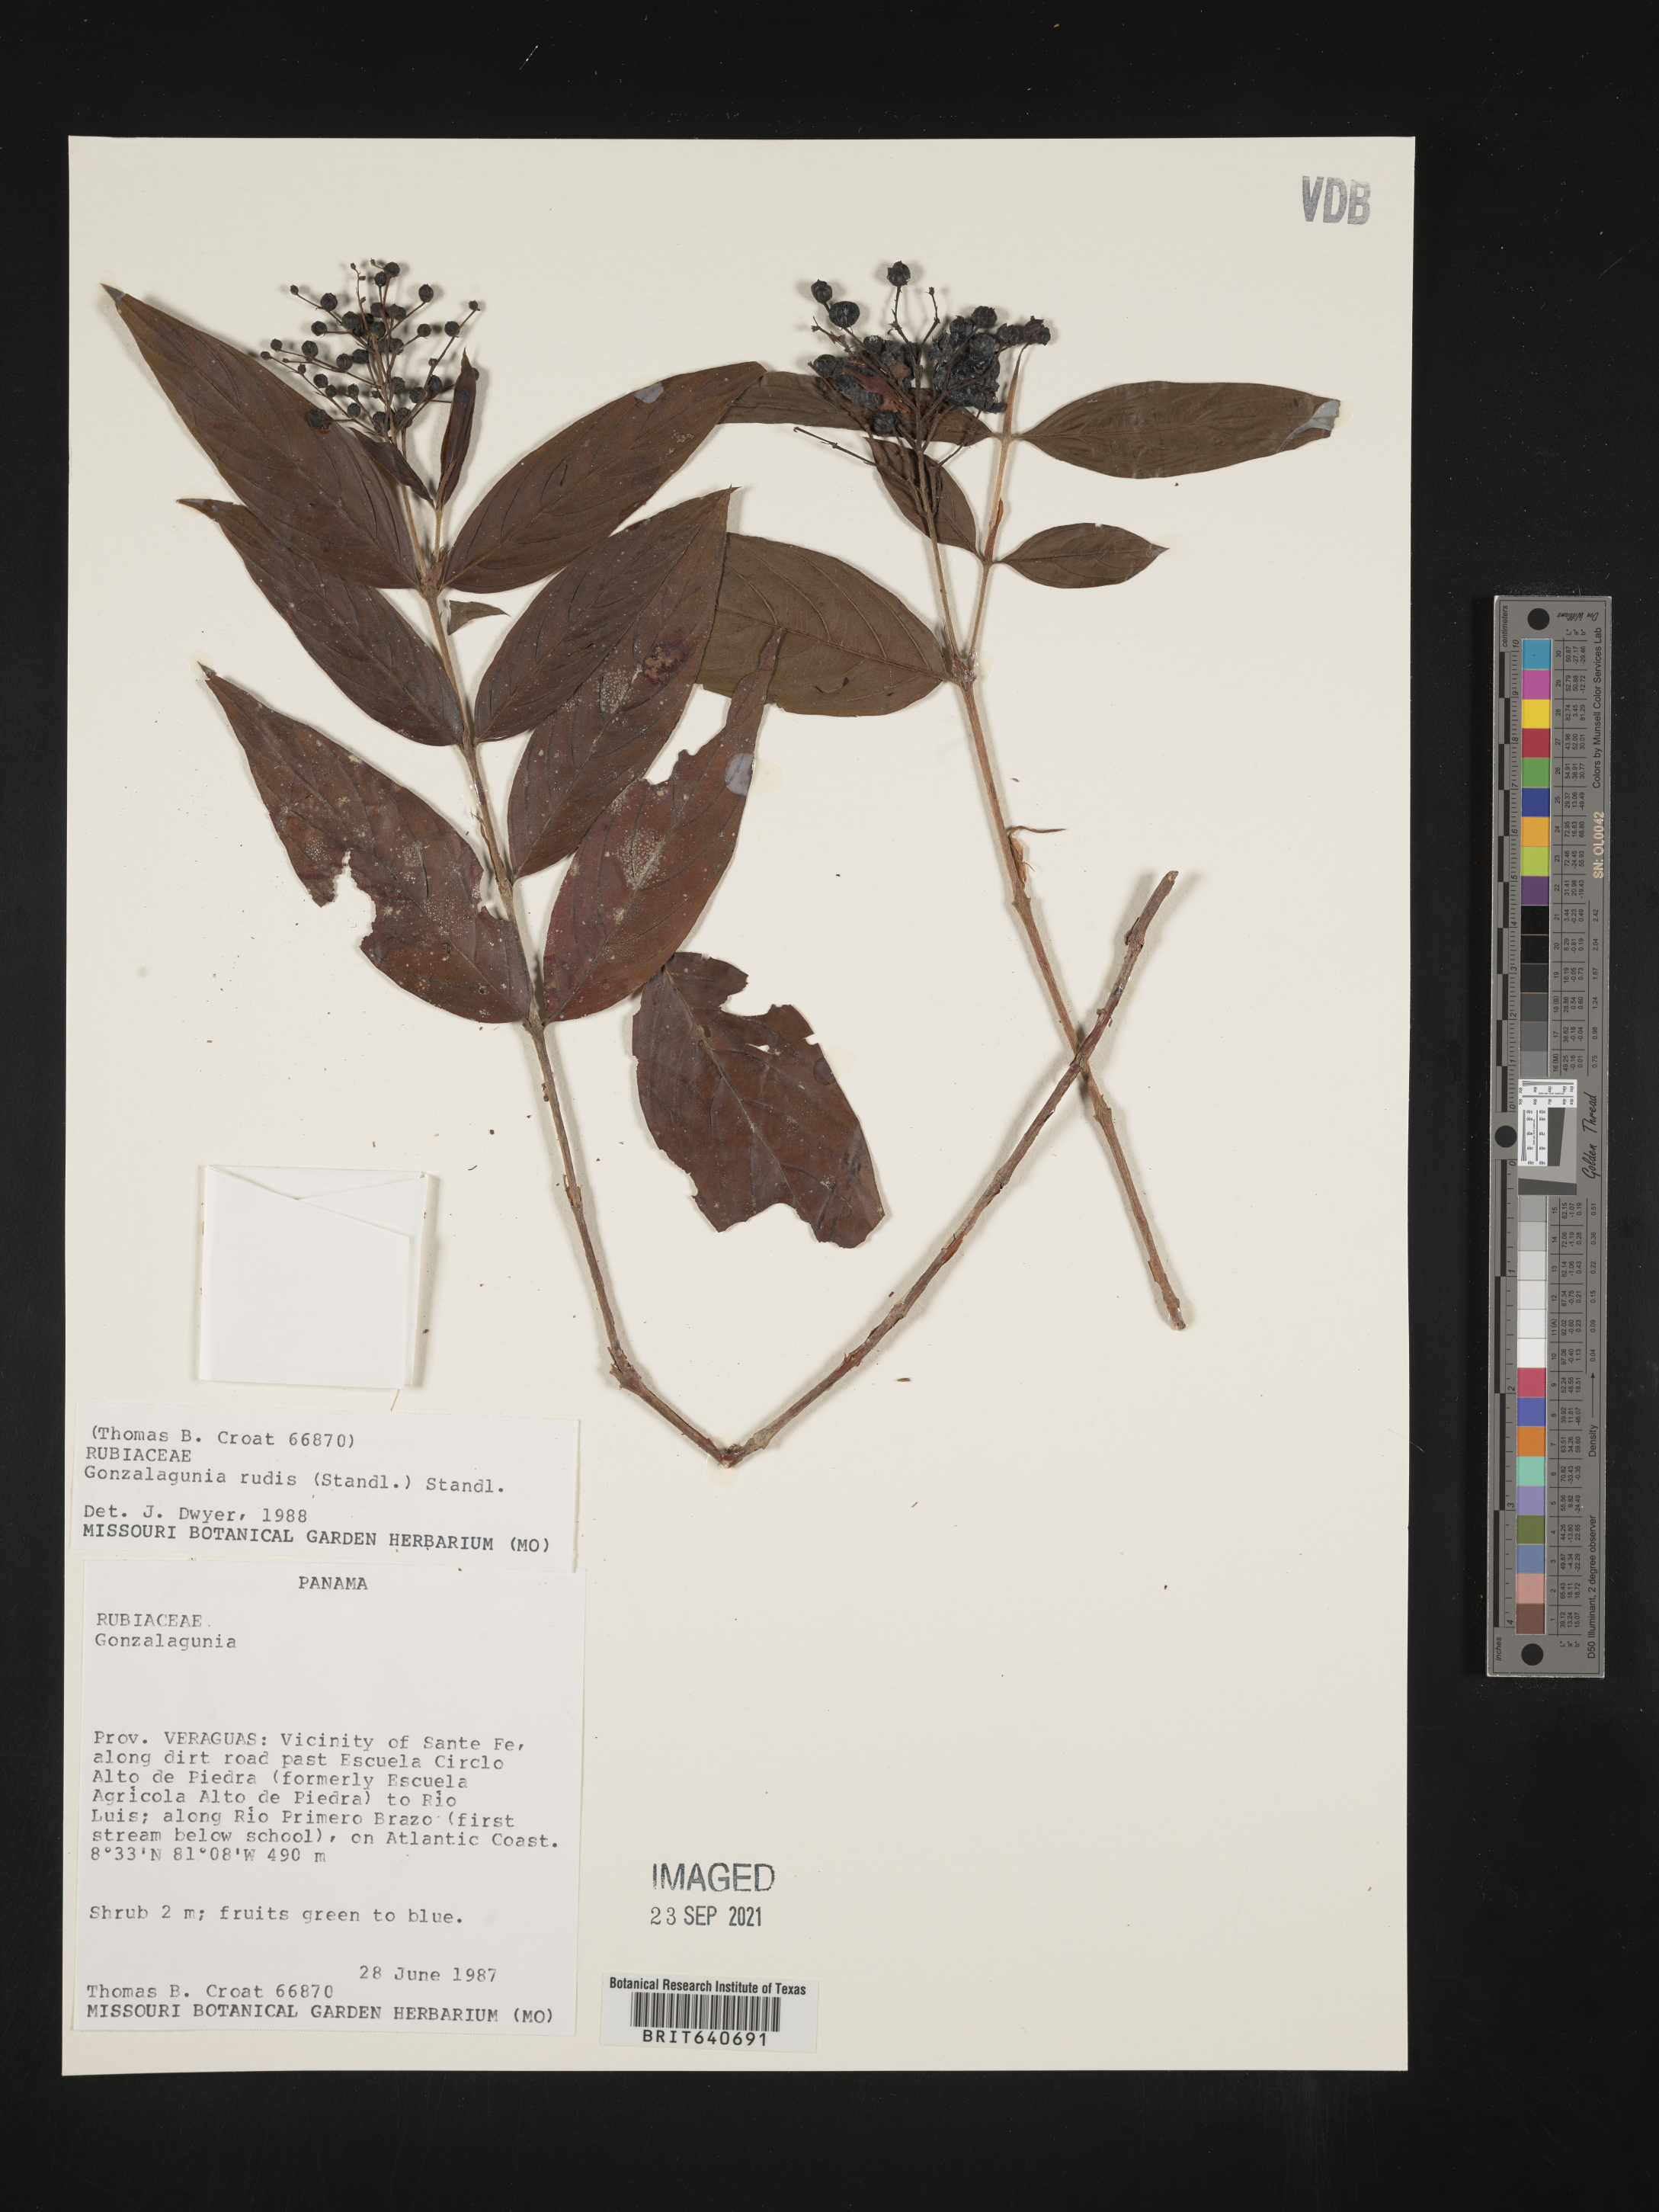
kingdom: Plantae
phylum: Tracheophyta
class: Magnoliopsida
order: Gentianales
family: Rubiaceae
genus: Gonzalagunia
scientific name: Gonzalagunia
